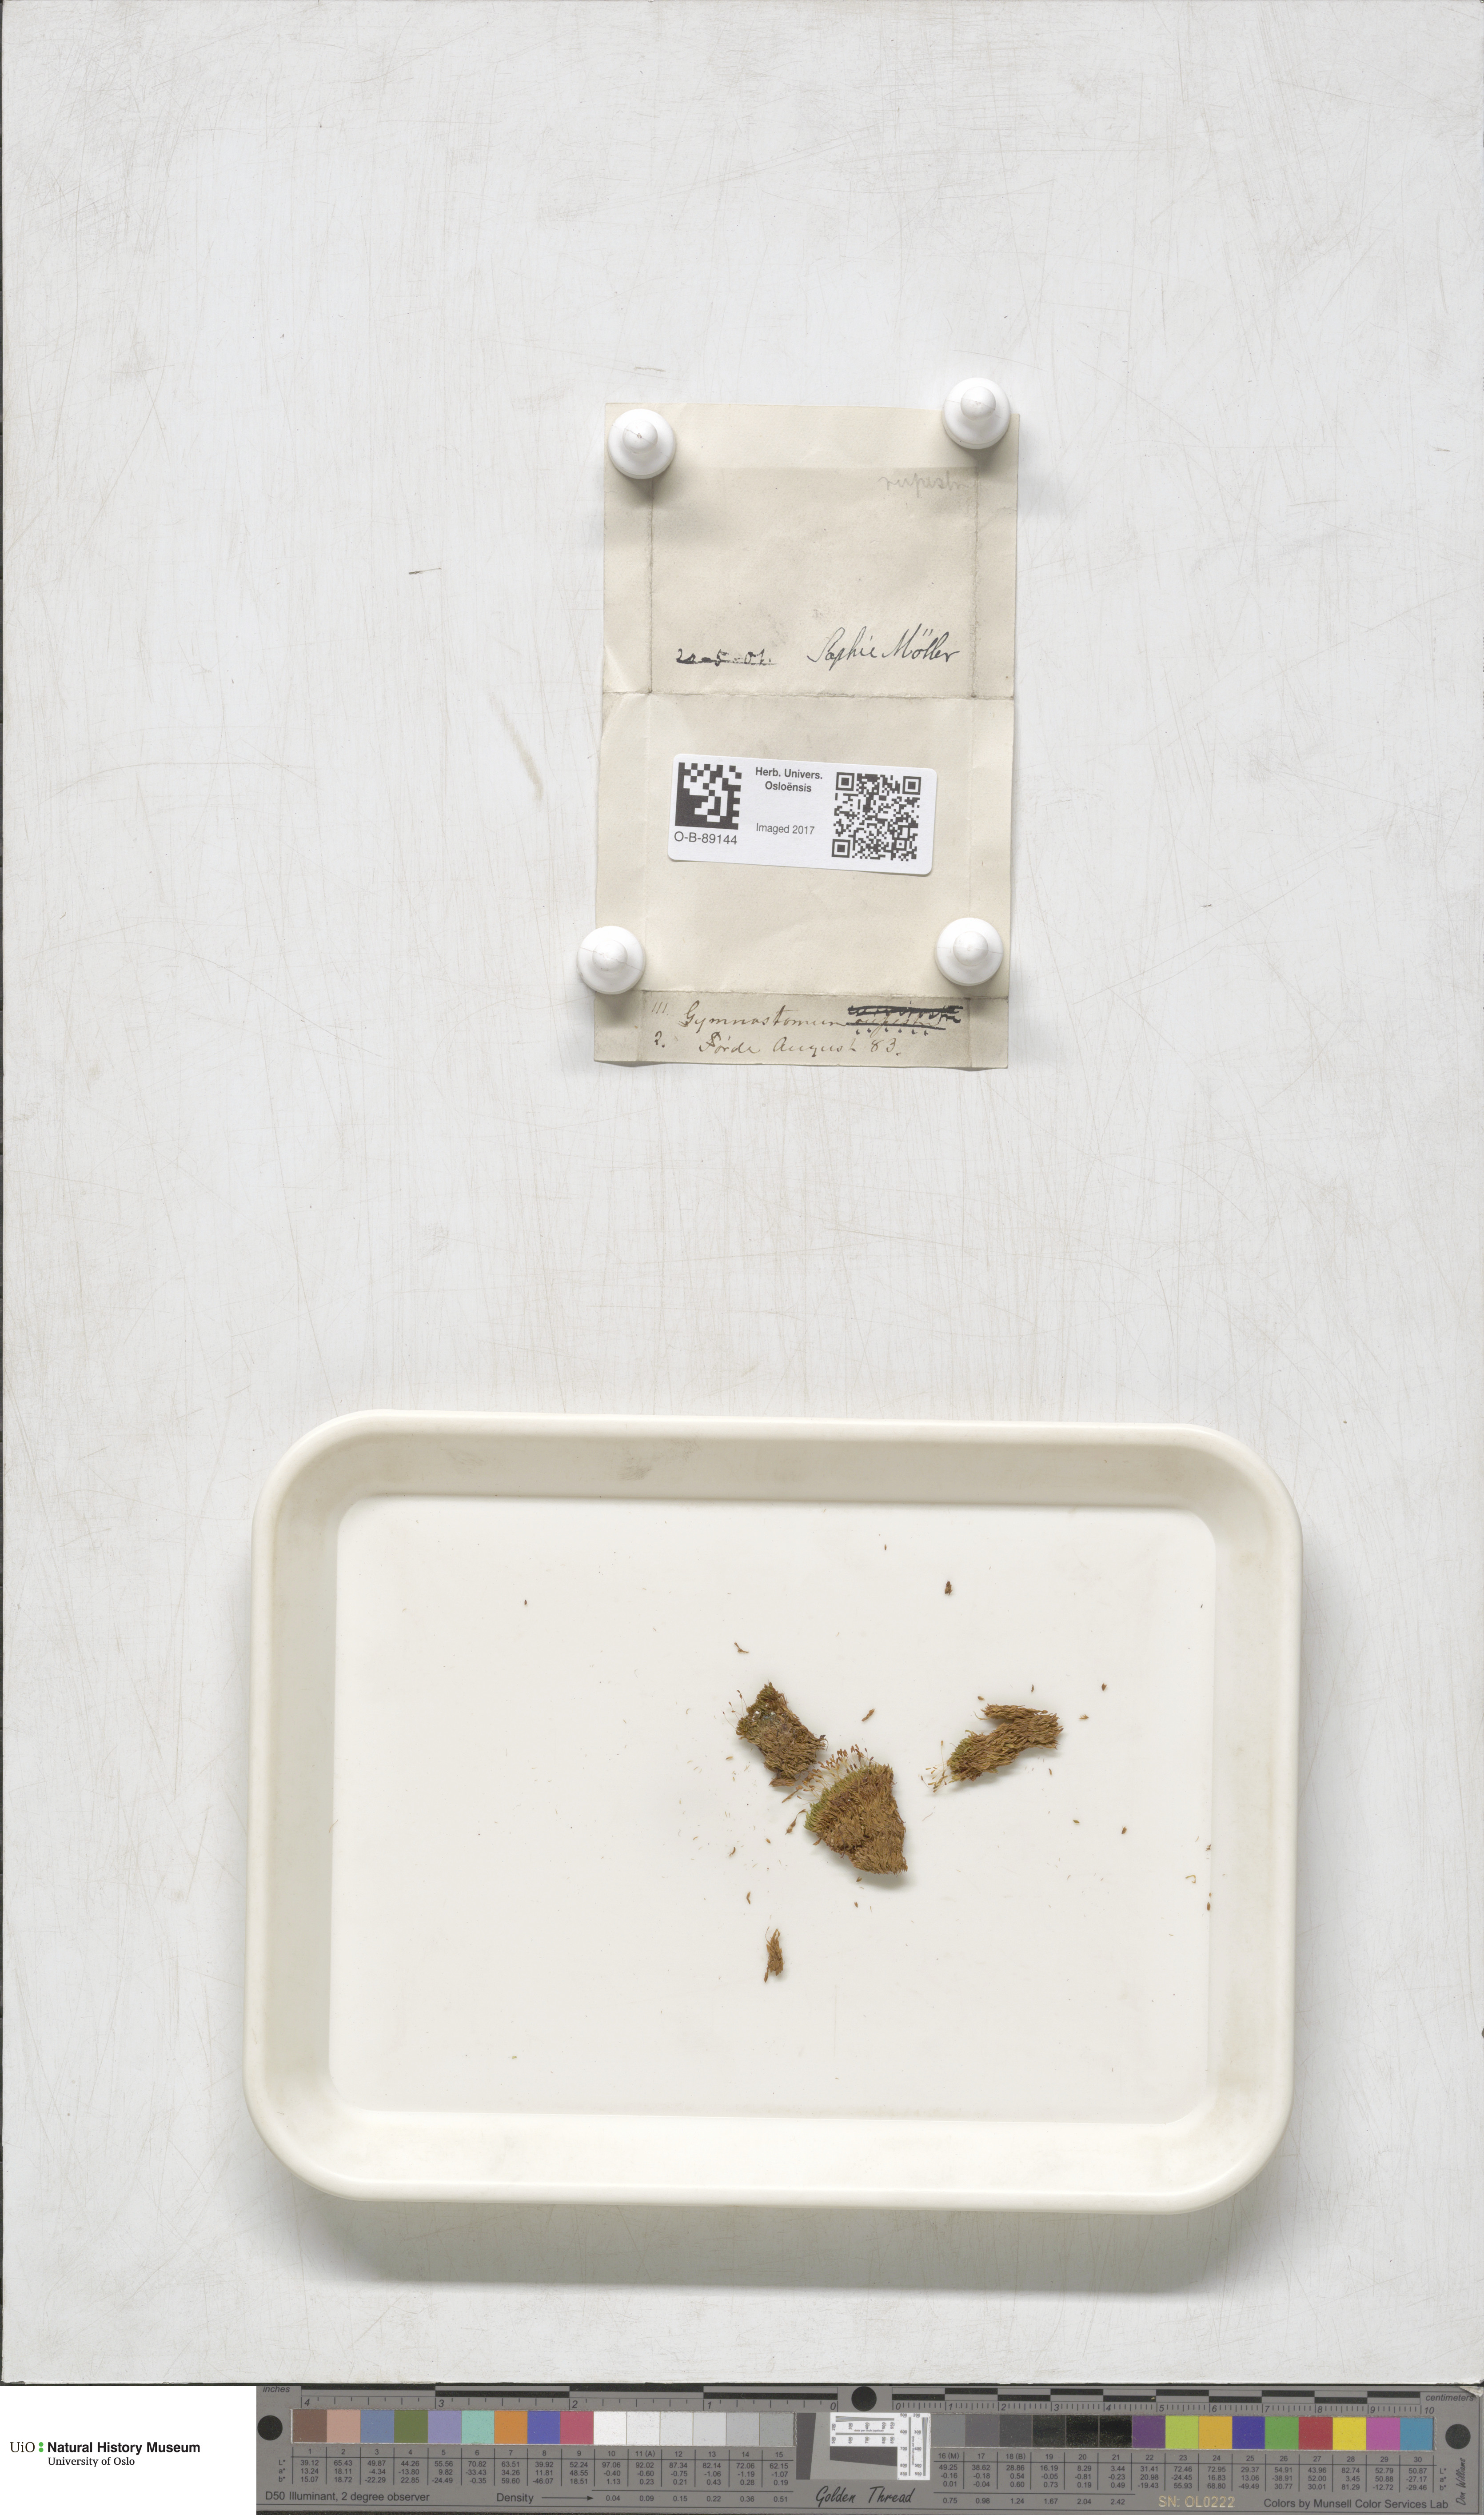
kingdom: Plantae
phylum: Bryophyta
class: Bryopsida
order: Pottiales
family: Pottiaceae
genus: Gymnostomum
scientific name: Gymnostomum aeruginosum
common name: Verdigris tufa-moss
